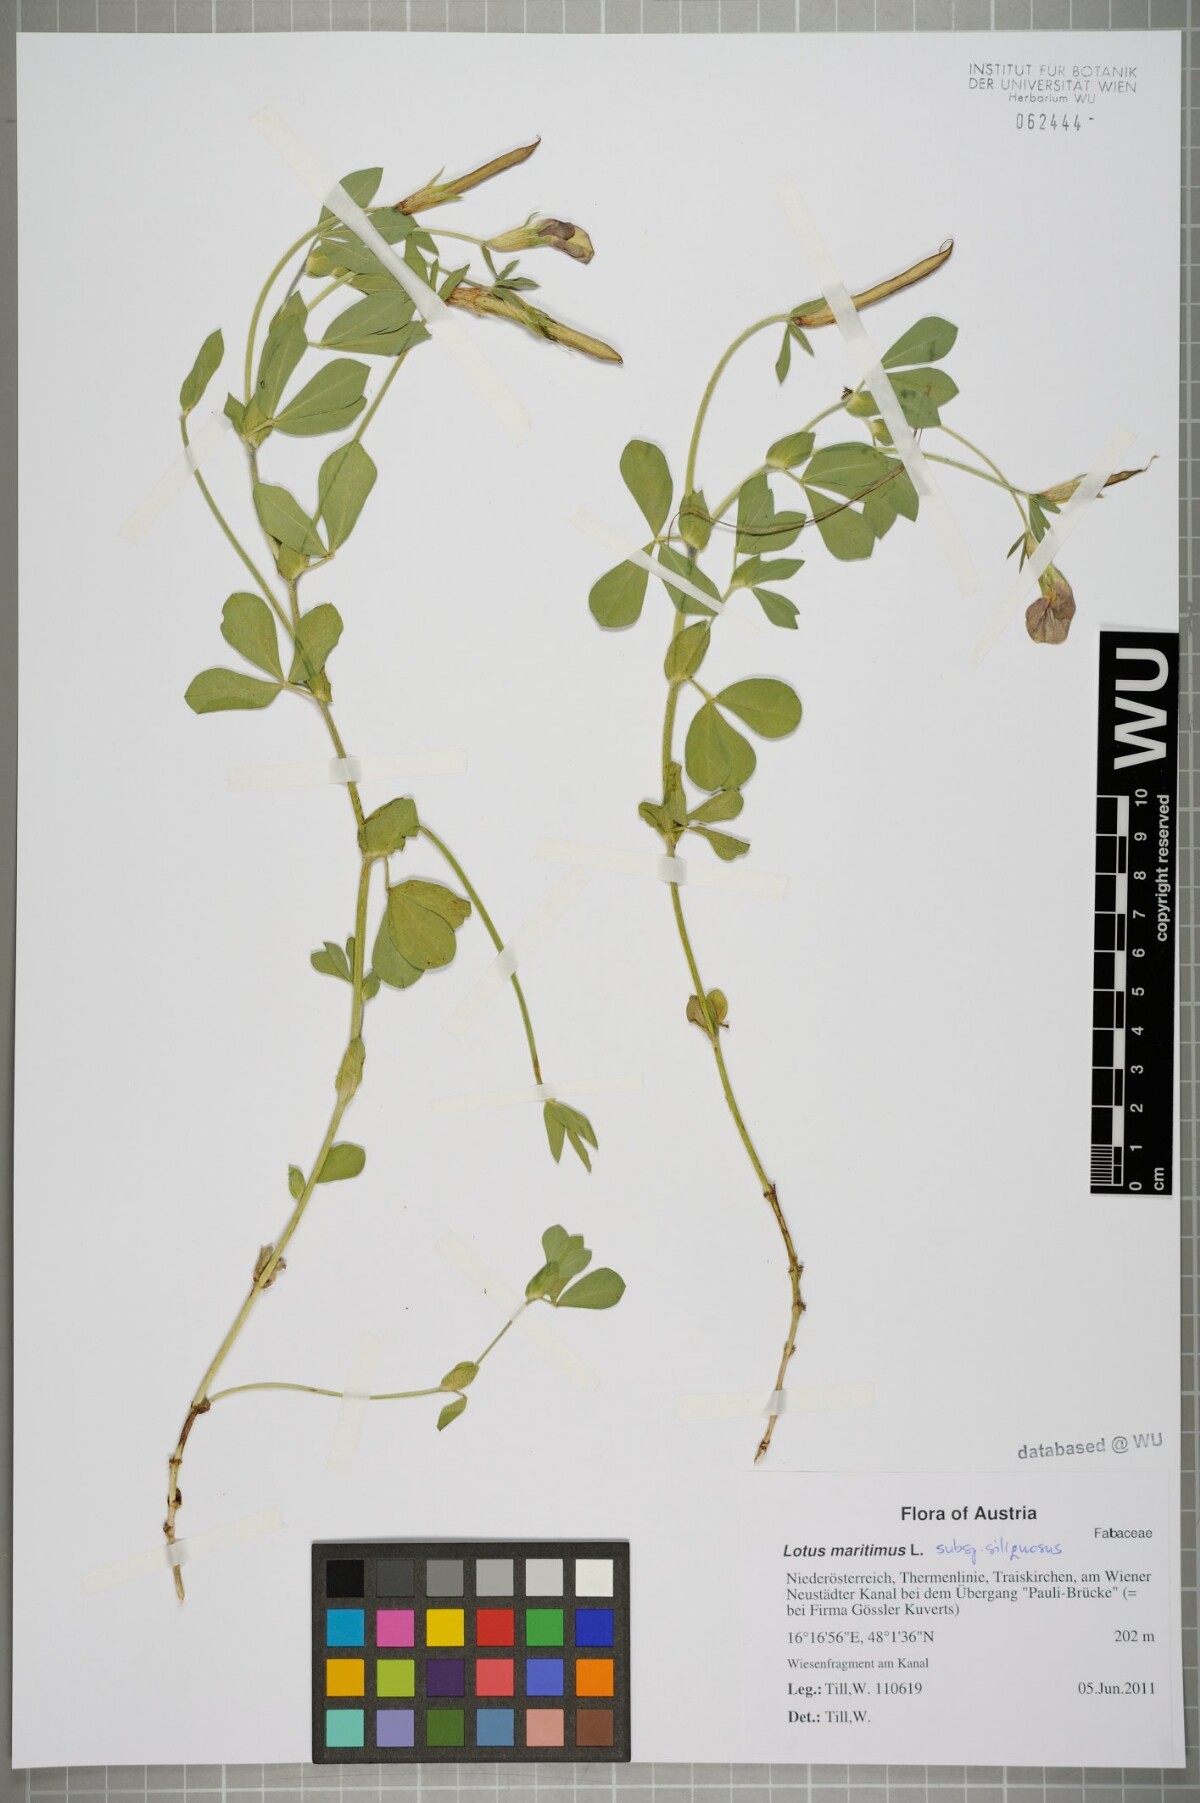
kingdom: Plantae
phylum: Tracheophyta
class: Magnoliopsida
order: Fabales
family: Fabaceae
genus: Lathyrus
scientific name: Lathyrus inconspicuus
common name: Inconspicuous pea
